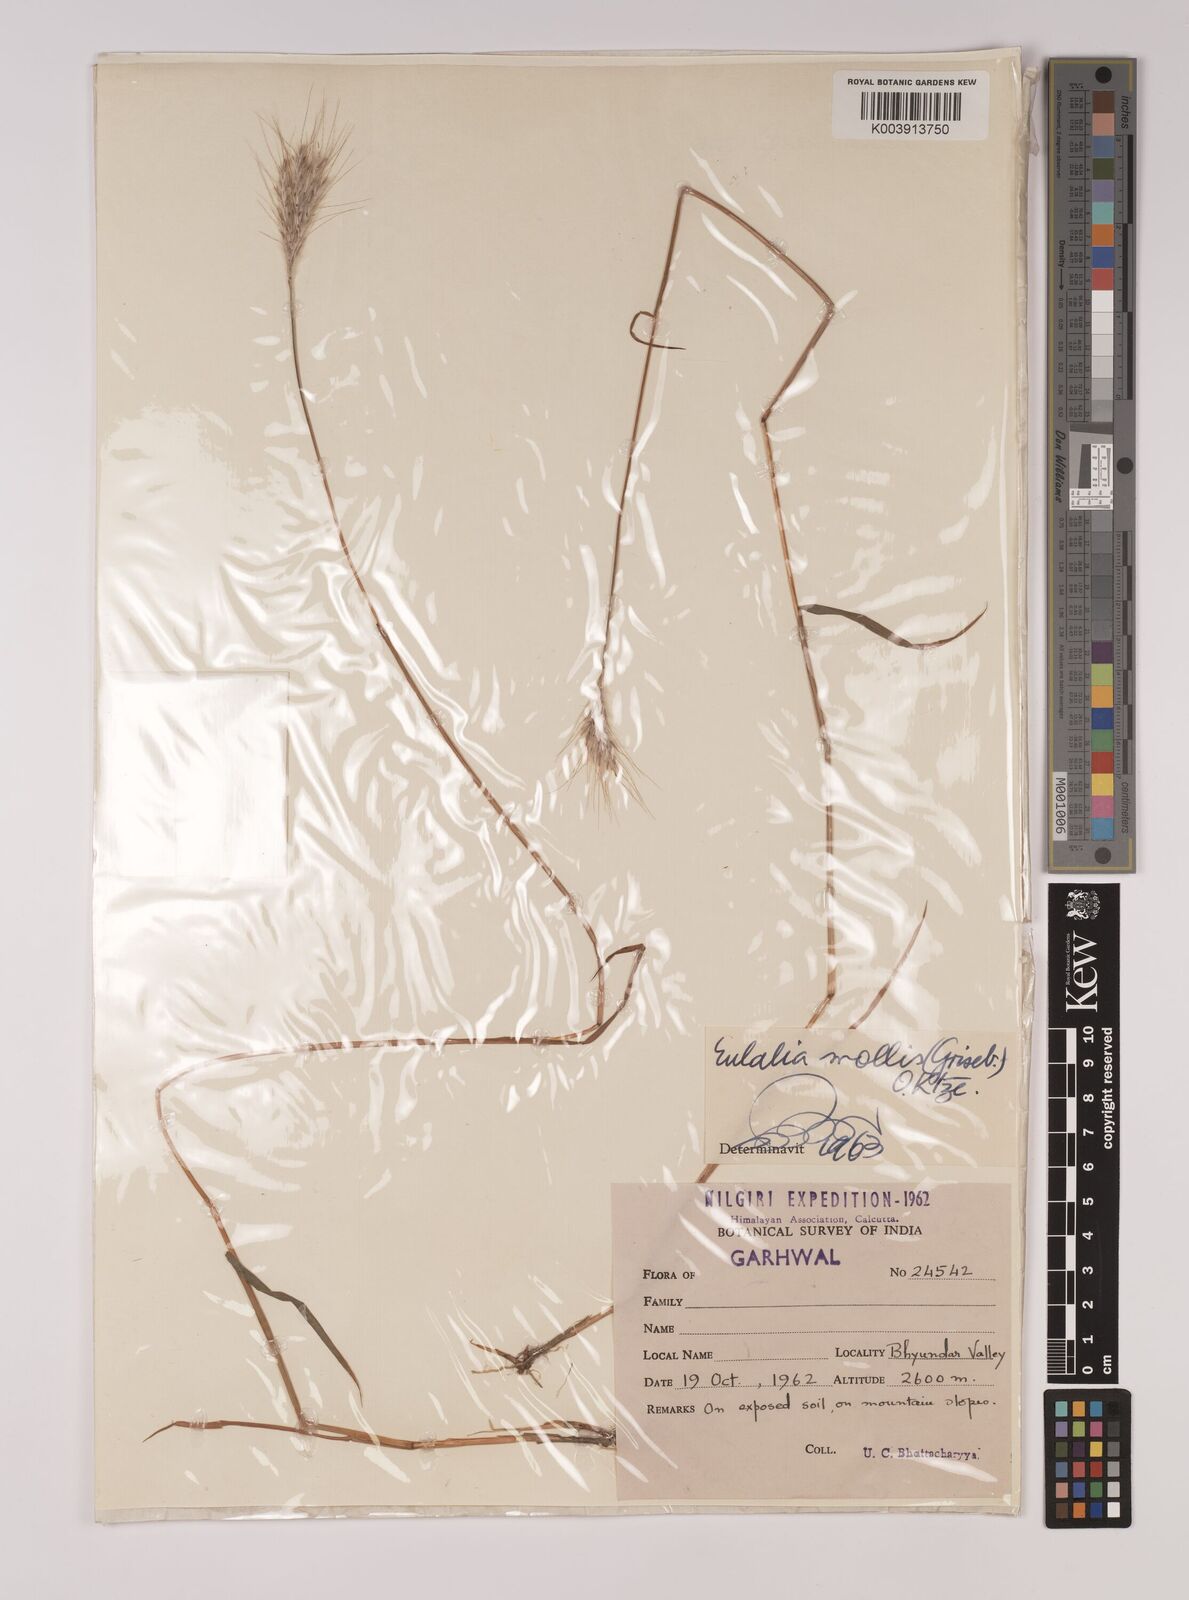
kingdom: Plantae
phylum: Tracheophyta
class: Liliopsida
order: Poales
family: Poaceae
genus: Eulalia
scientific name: Eulalia mollis
